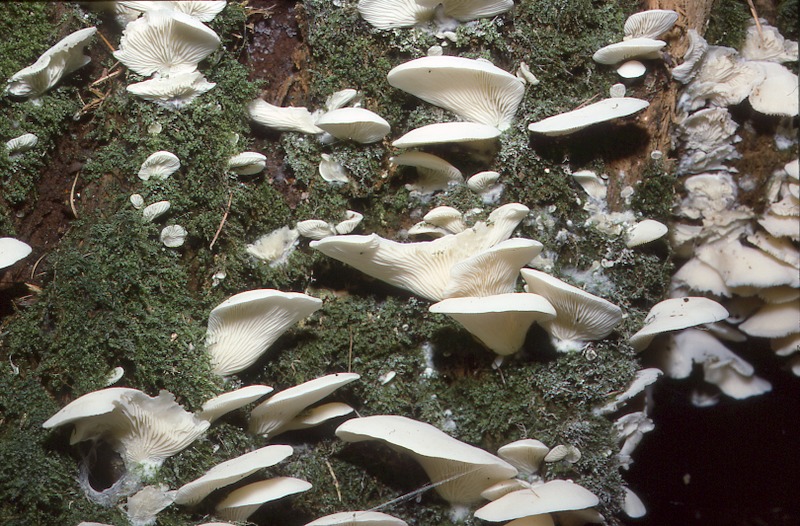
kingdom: Fungi
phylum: Basidiomycota
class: Agaricomycetes
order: Agaricales
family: Marasmiaceae
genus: Pleurocybella
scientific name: Pleurocybella porrigens
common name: Angel's wings
